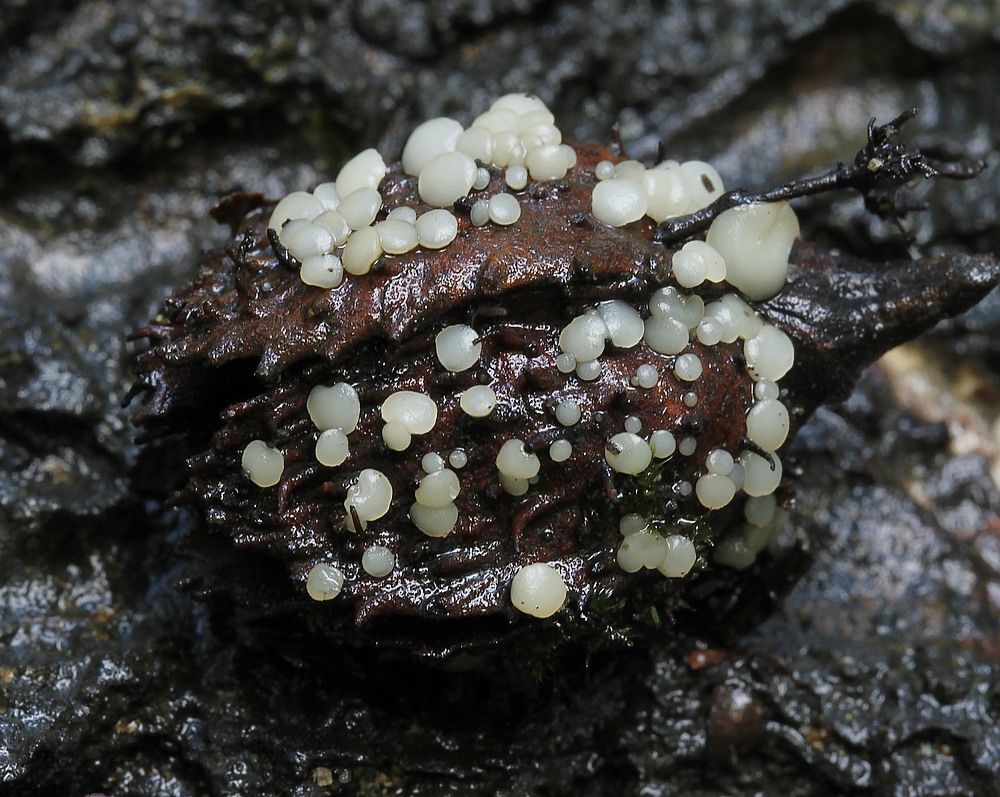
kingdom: Fungi
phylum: Ascomycota
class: Leotiomycetes
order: Helotiales
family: Helotiaceae
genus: Hymenoscyphus
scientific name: Hymenoscyphus fagineus
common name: vellugtende stilkskive
